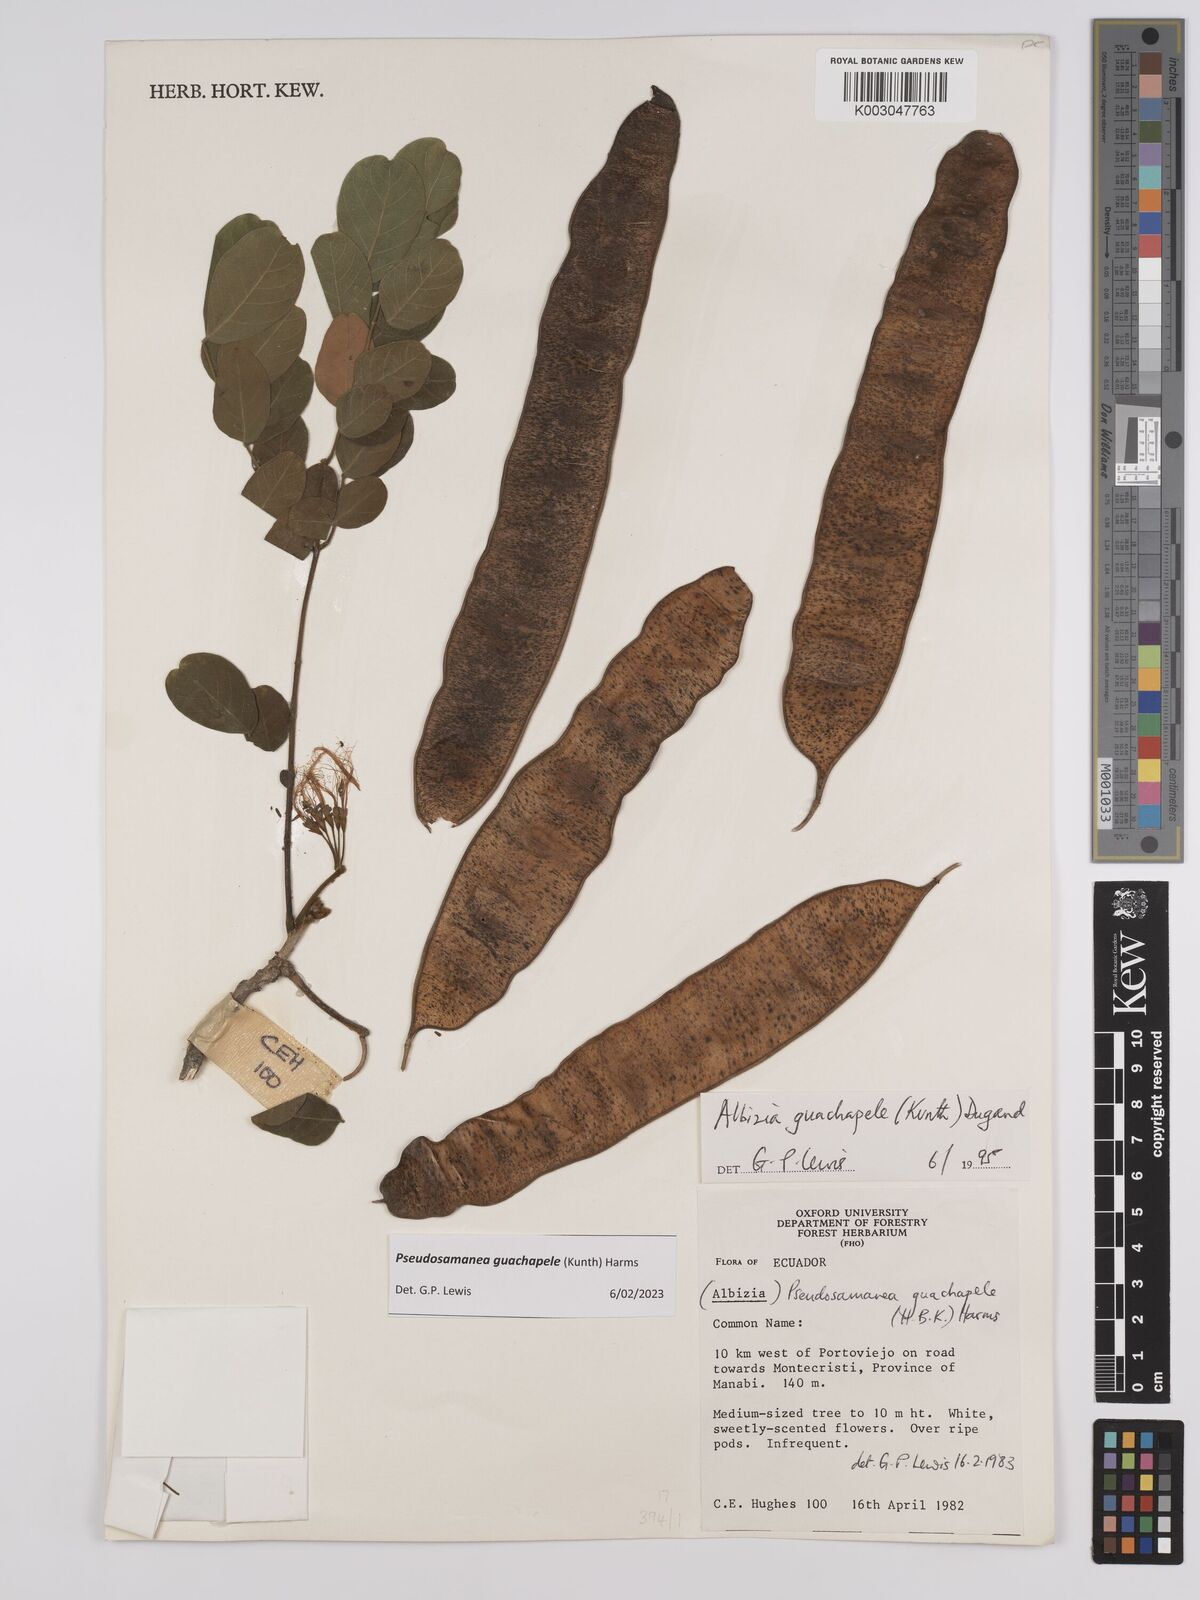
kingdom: Plantae
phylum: Tracheophyta
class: Magnoliopsida
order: Fabales
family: Fabaceae
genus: Pseudosamanea
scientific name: Pseudosamanea guachapele
